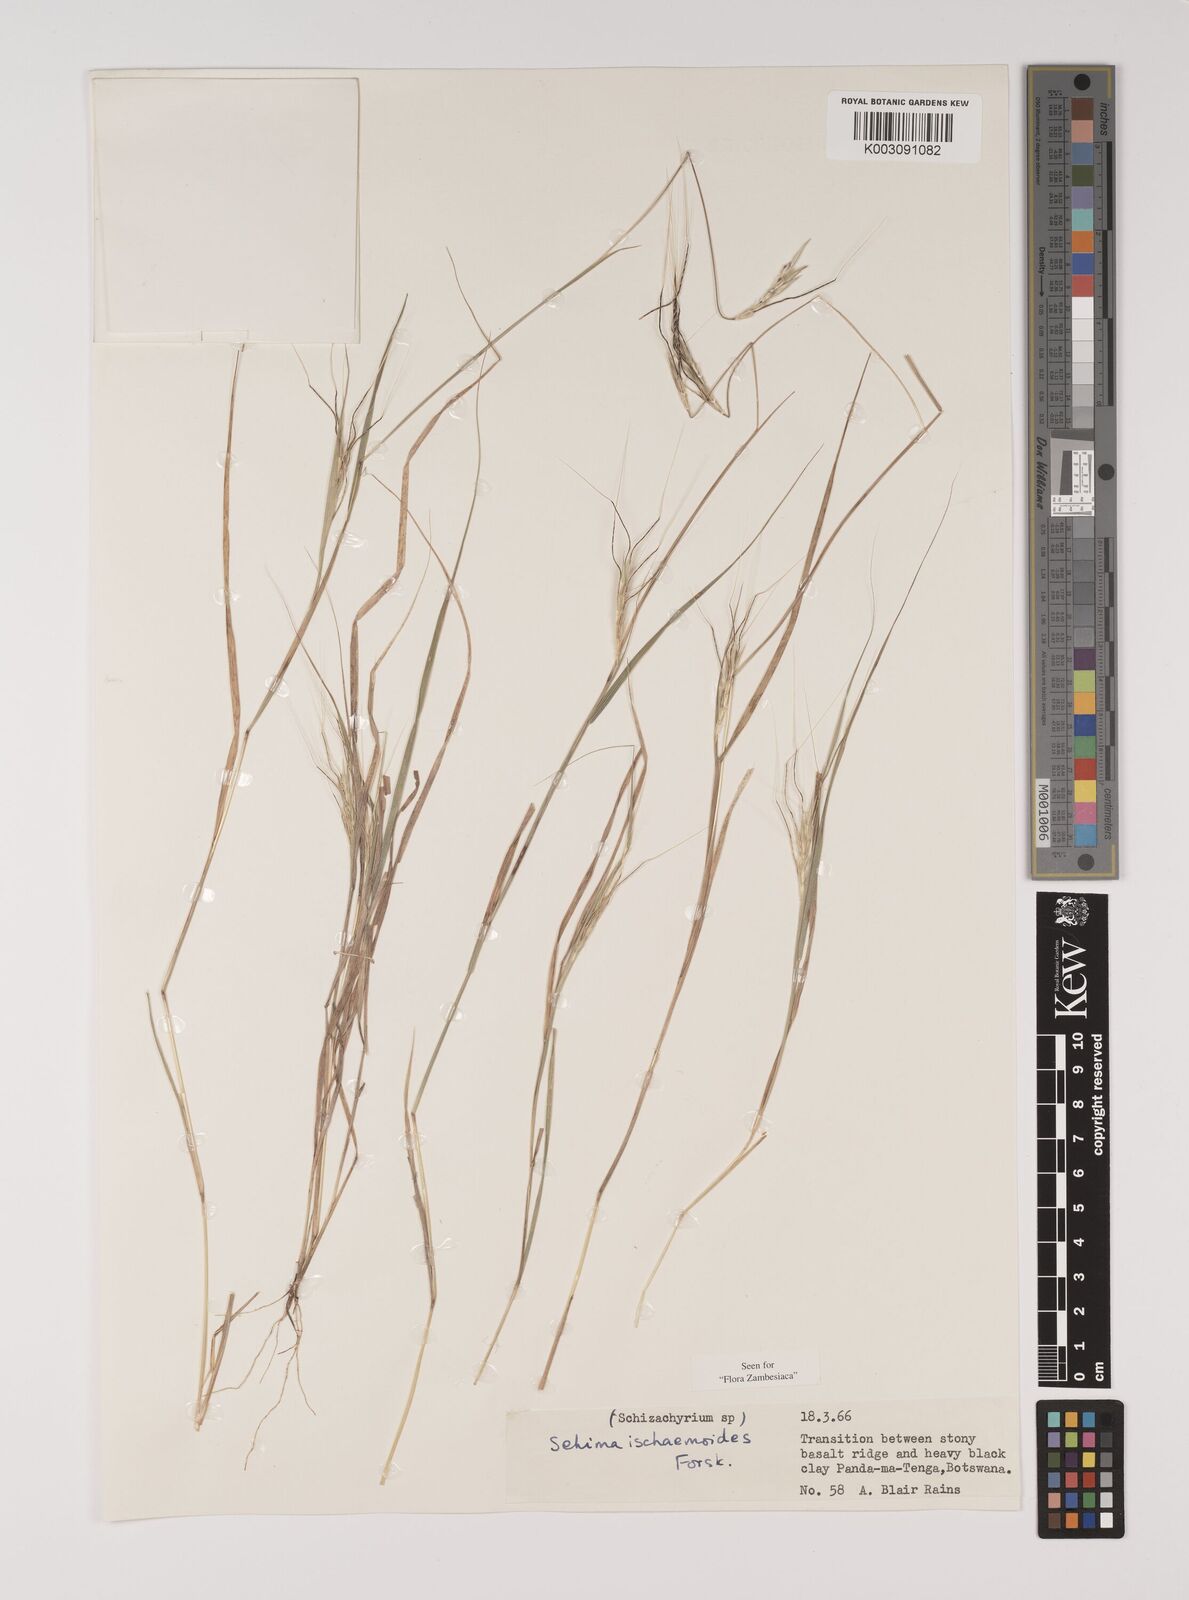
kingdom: Plantae
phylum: Tracheophyta
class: Liliopsida
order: Poales
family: Poaceae
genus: Sehima
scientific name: Sehima ischaemoides
